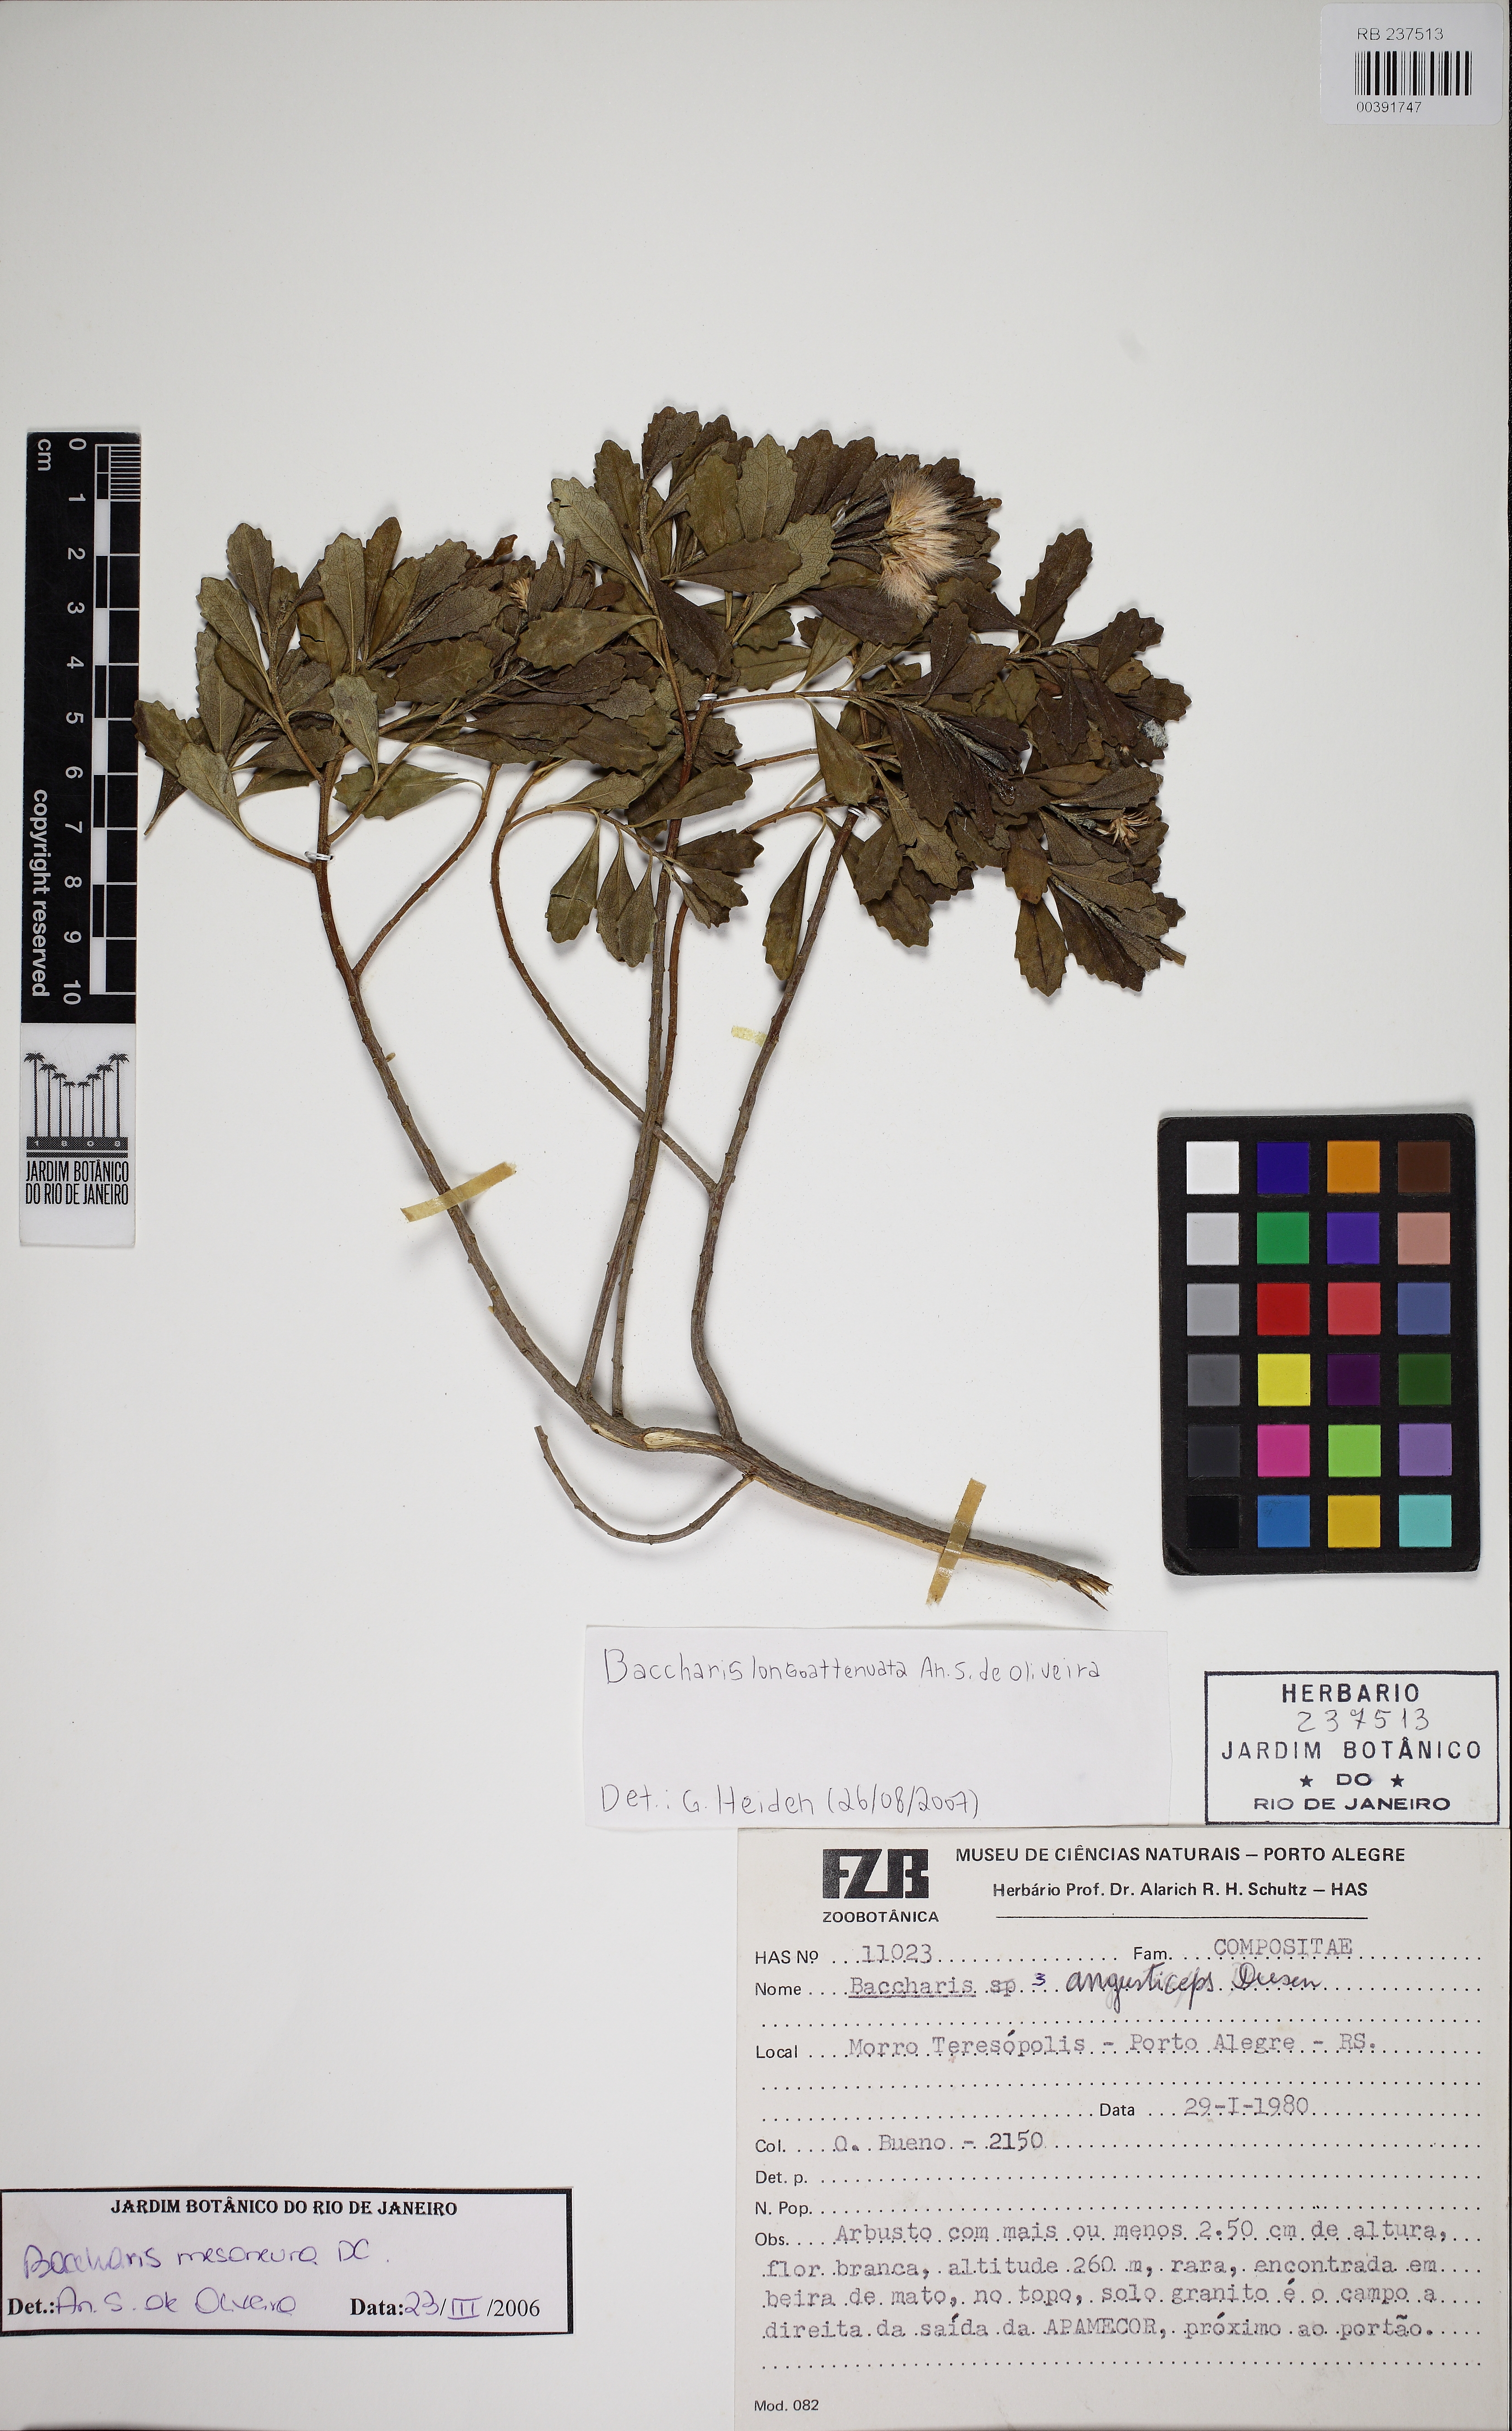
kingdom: Plantae
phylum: Tracheophyta
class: Magnoliopsida
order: Asterales
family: Asteraceae
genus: Baccharis
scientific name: Baccharis angusticeps
